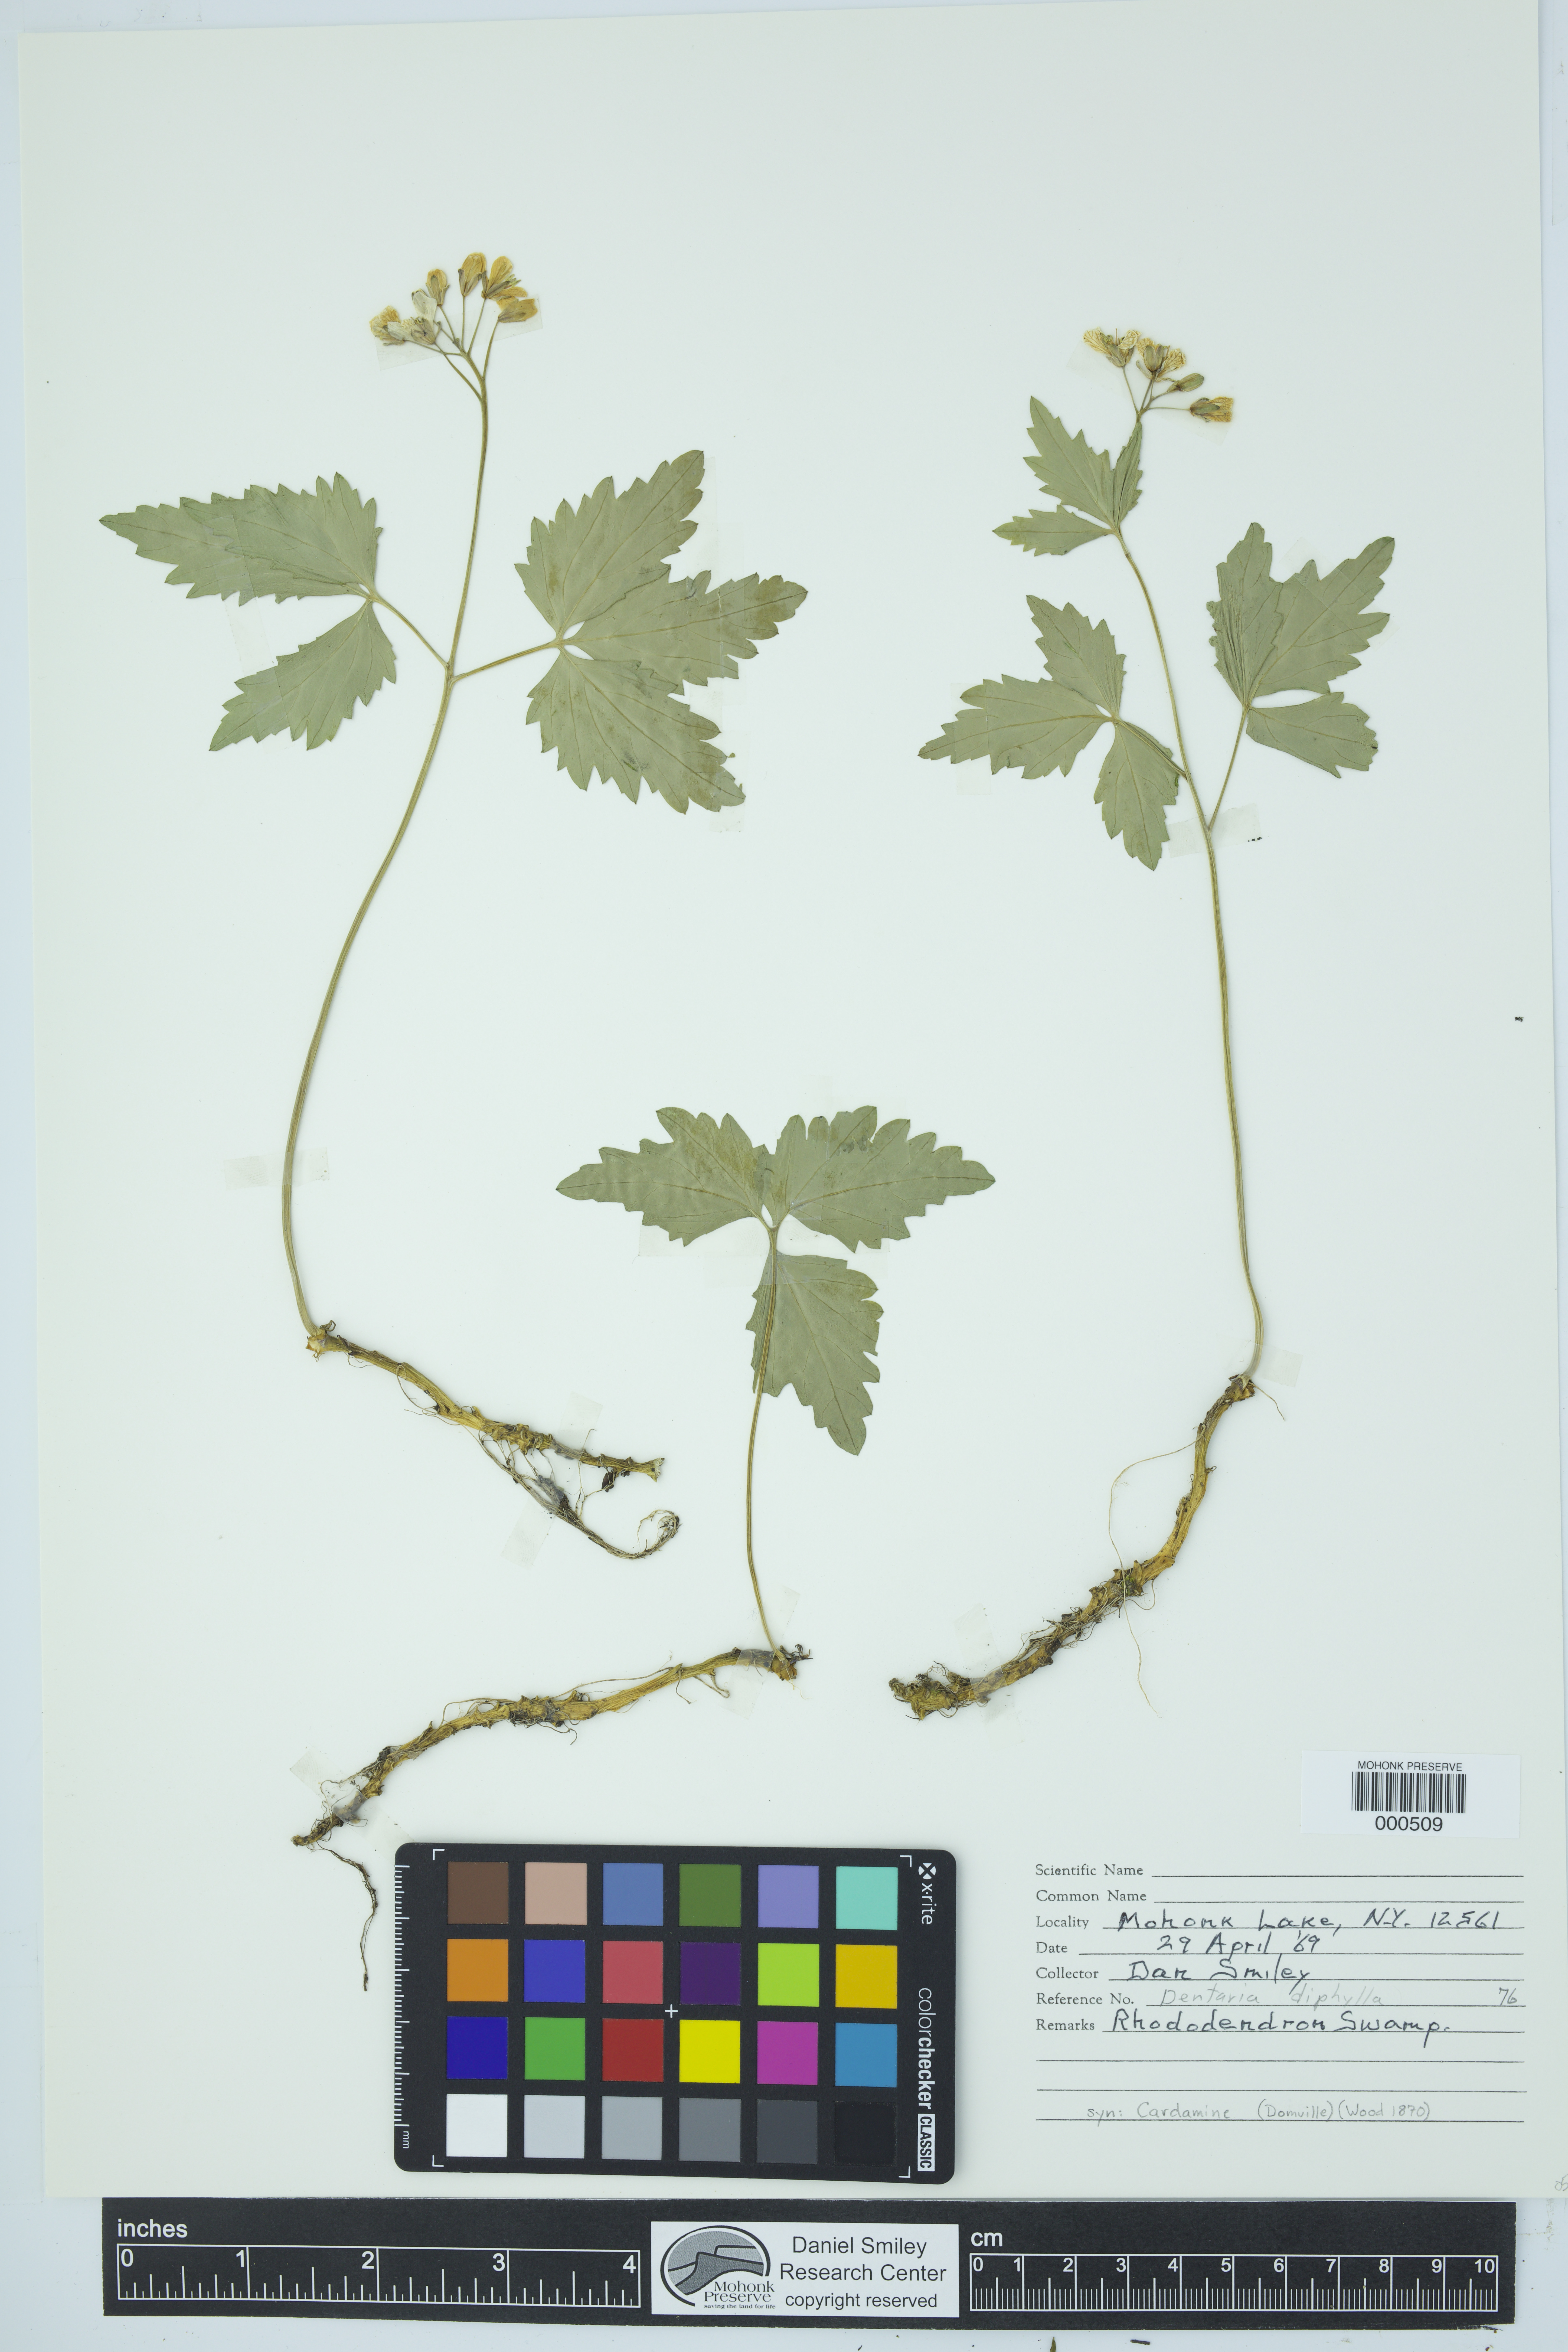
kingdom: Plantae
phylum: Tracheophyta
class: Magnoliopsida
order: Brassicales
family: Brassicaceae
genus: Cardamine
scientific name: Cardamine diphylla
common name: Broad-leaved toothwort
